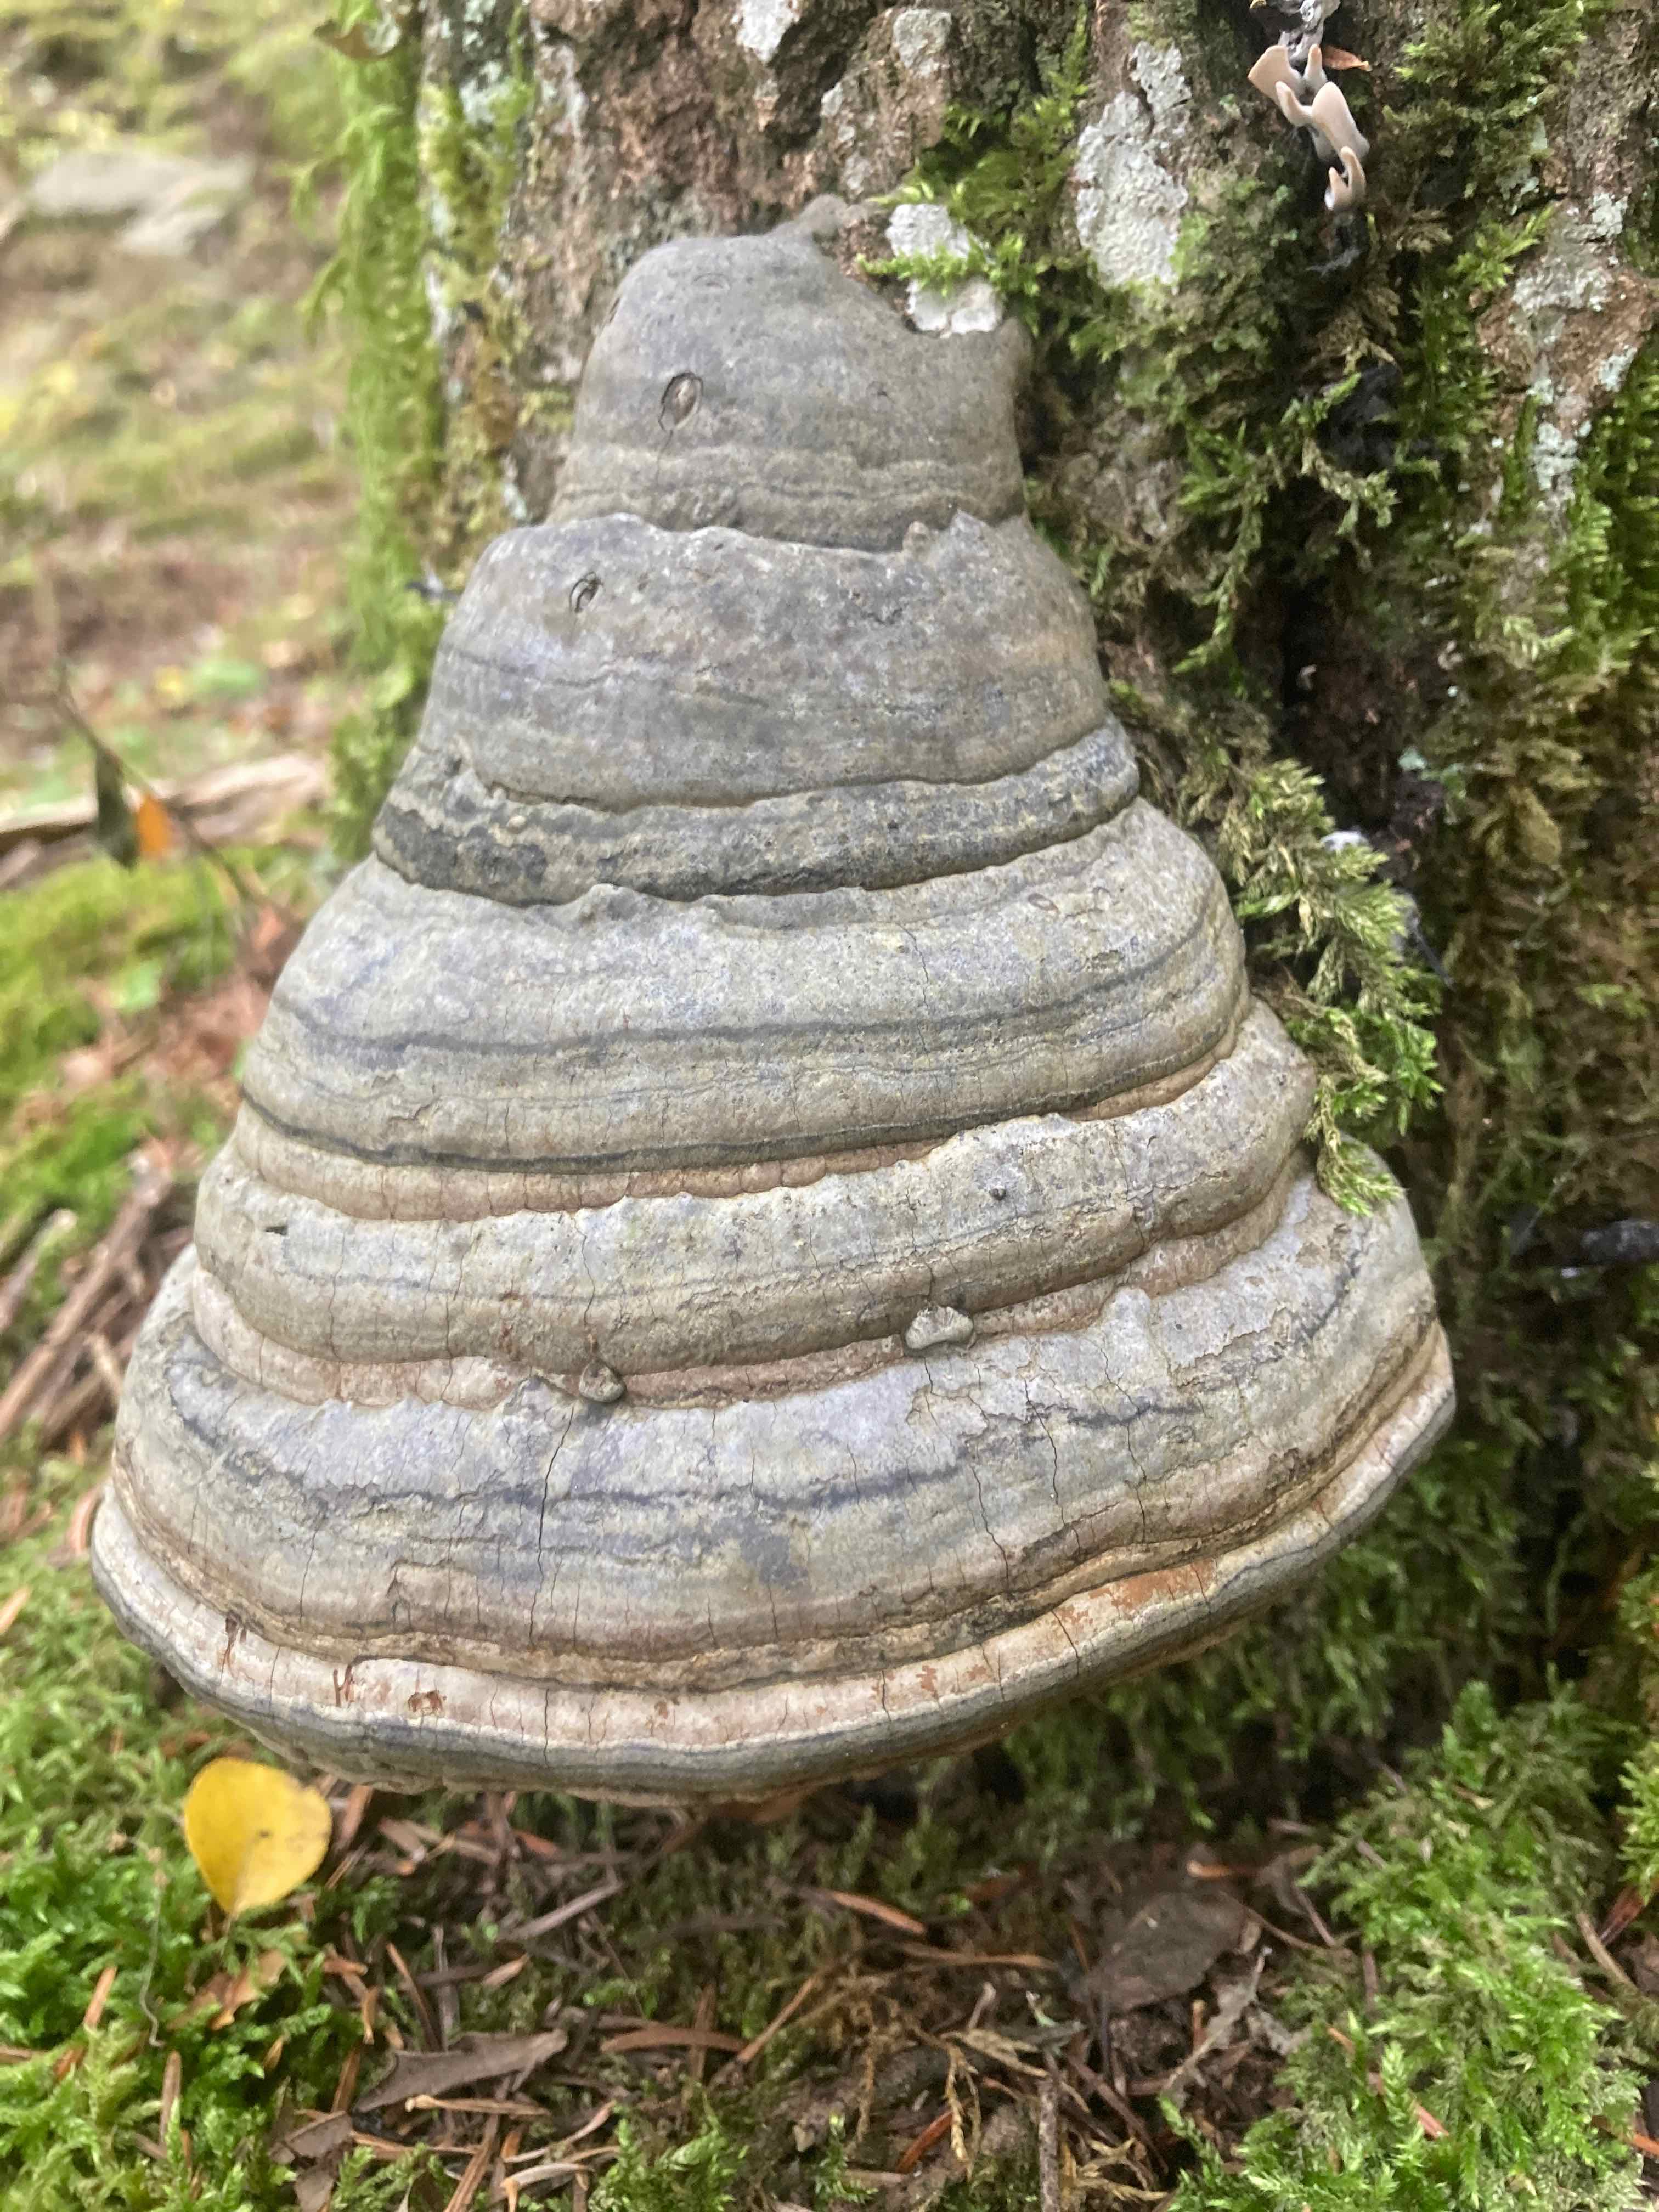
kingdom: Fungi
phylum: Basidiomycota
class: Agaricomycetes
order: Polyporales
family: Polyporaceae
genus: Fomes
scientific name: Fomes fomentarius
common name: tøndersvamp
